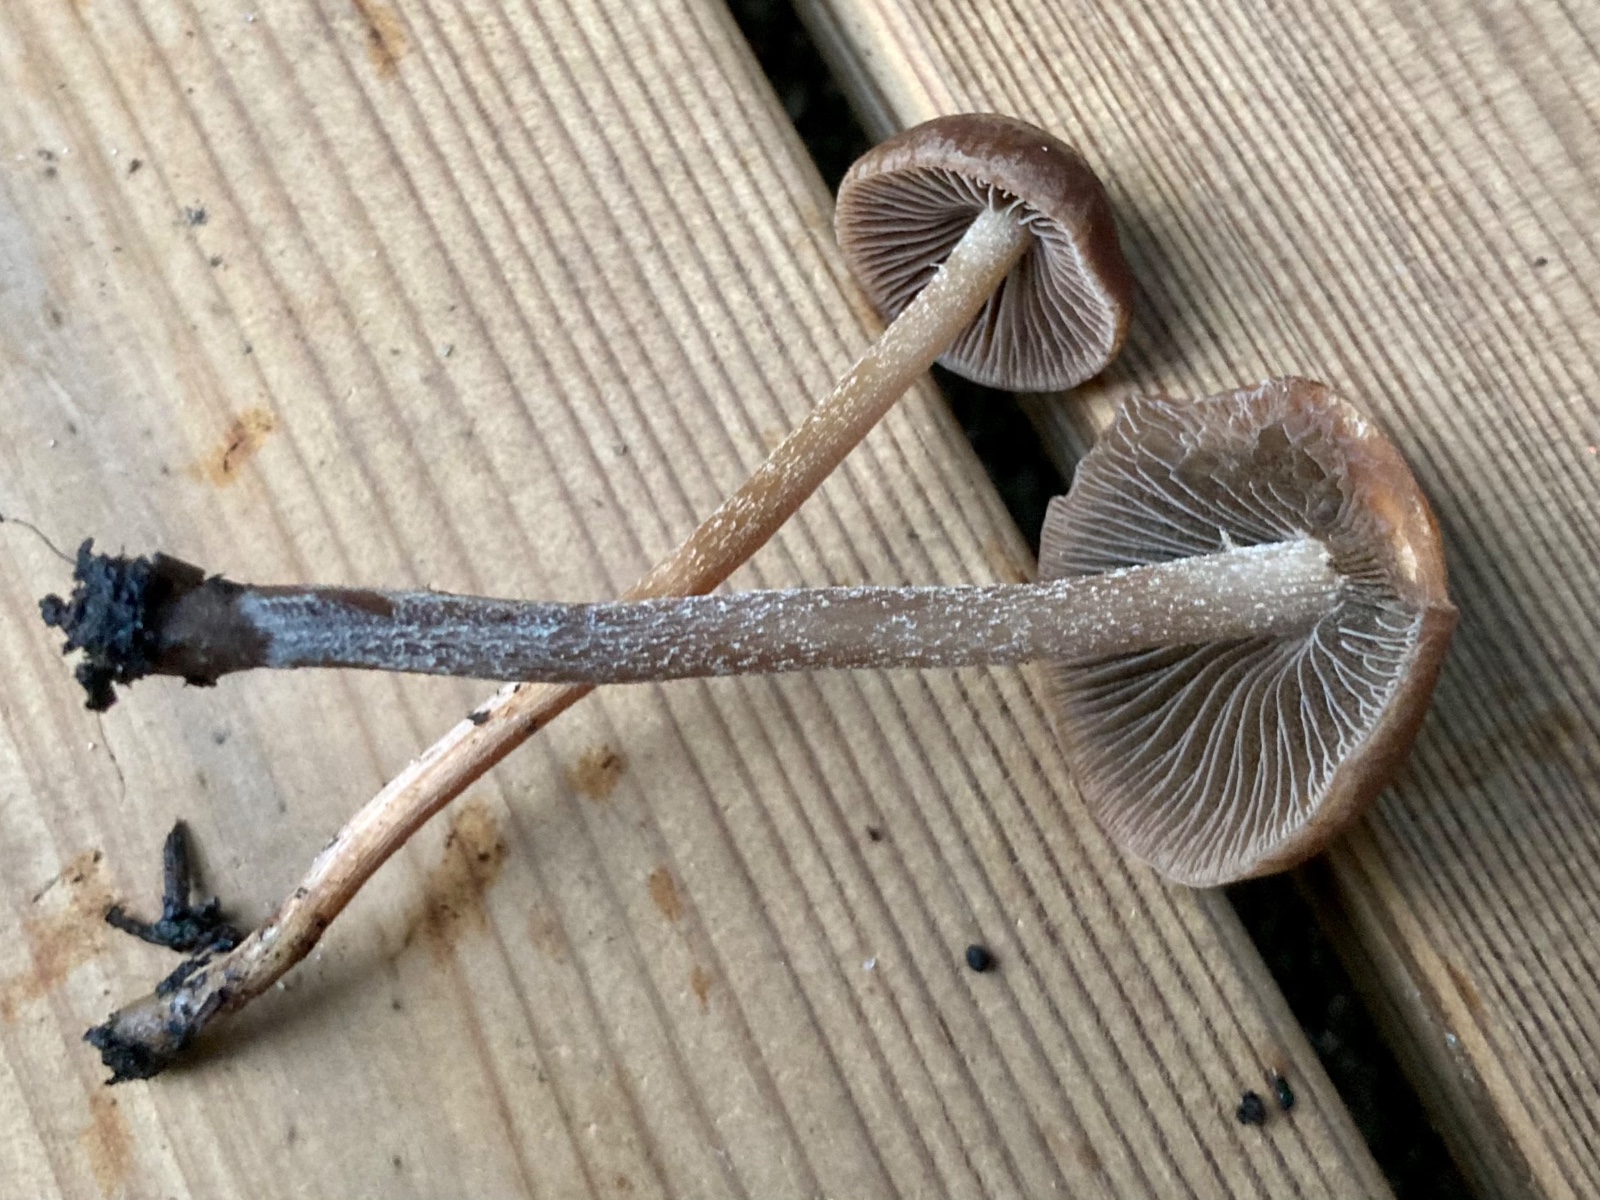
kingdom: Fungi
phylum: Basidiomycota
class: Agaricomycetes
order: Agaricales
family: Bolbitiaceae
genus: Panaeolus
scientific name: Panaeolus cinctulus
